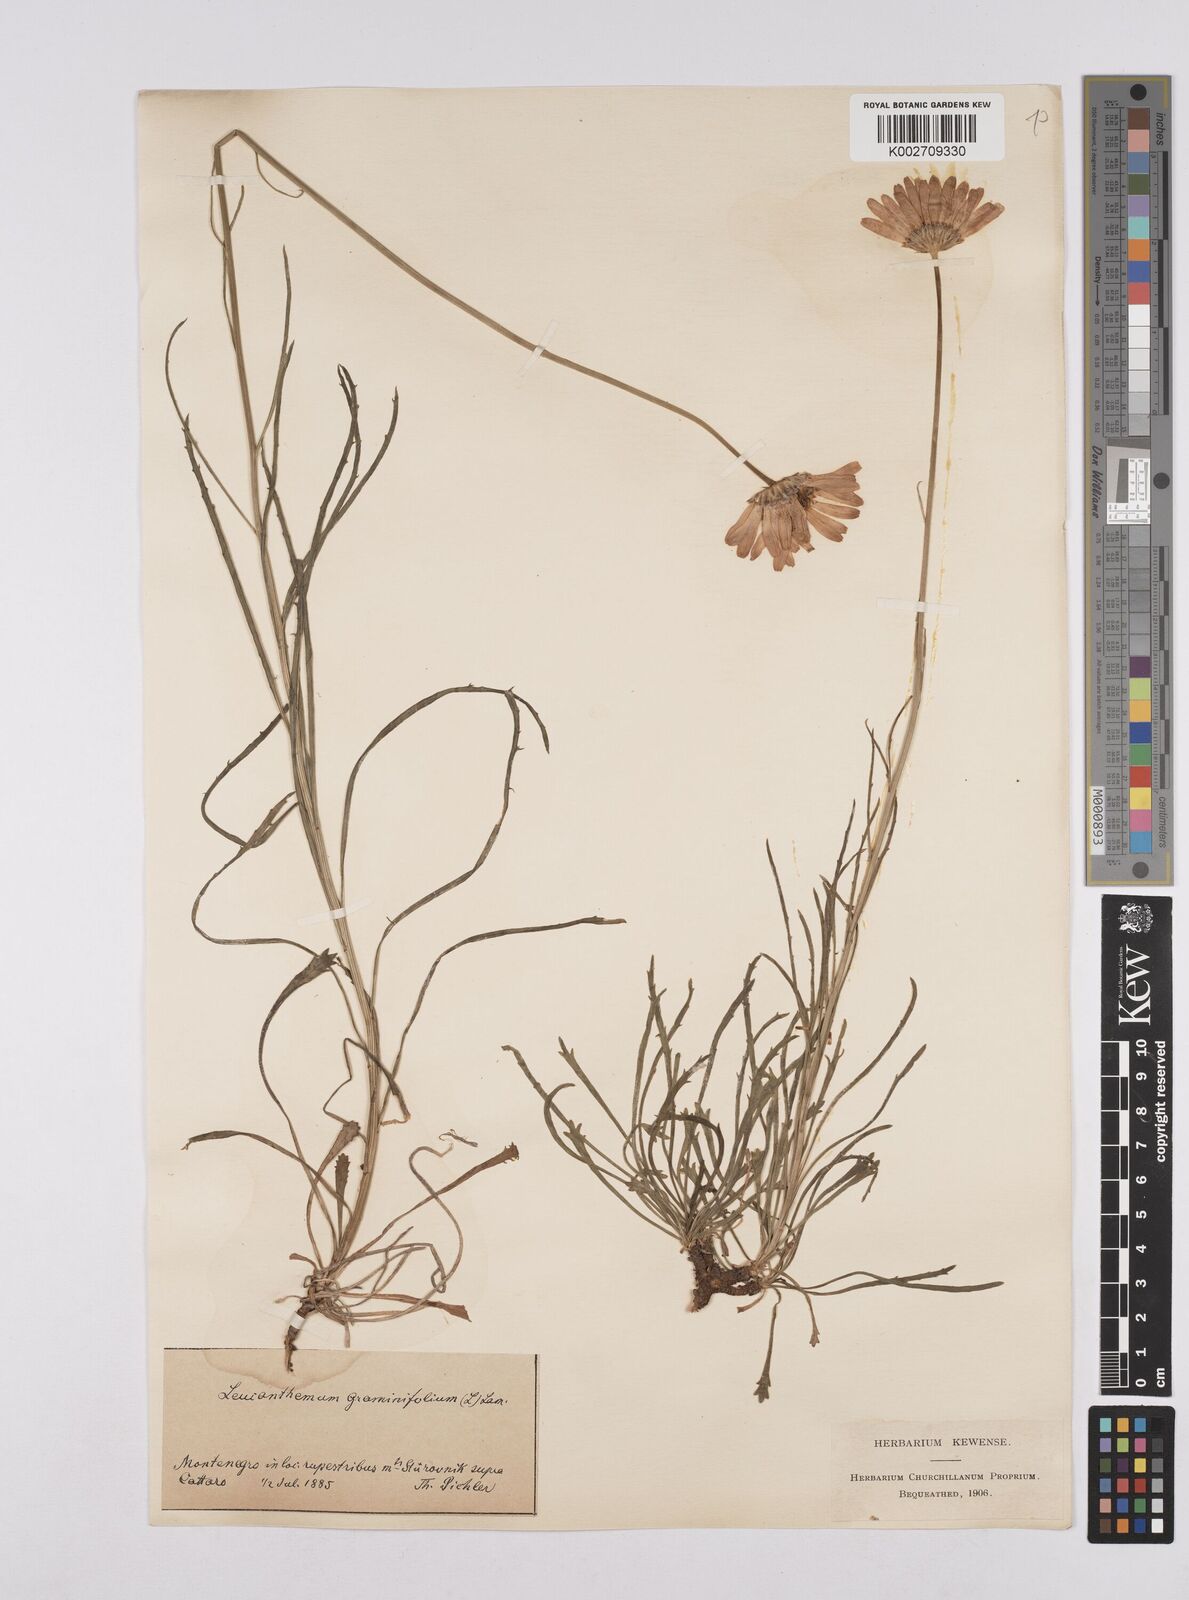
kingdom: Plantae
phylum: Tracheophyta
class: Magnoliopsida
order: Asterales
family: Asteraceae
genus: Leucanthemum
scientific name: Leucanthemum chloroticum
